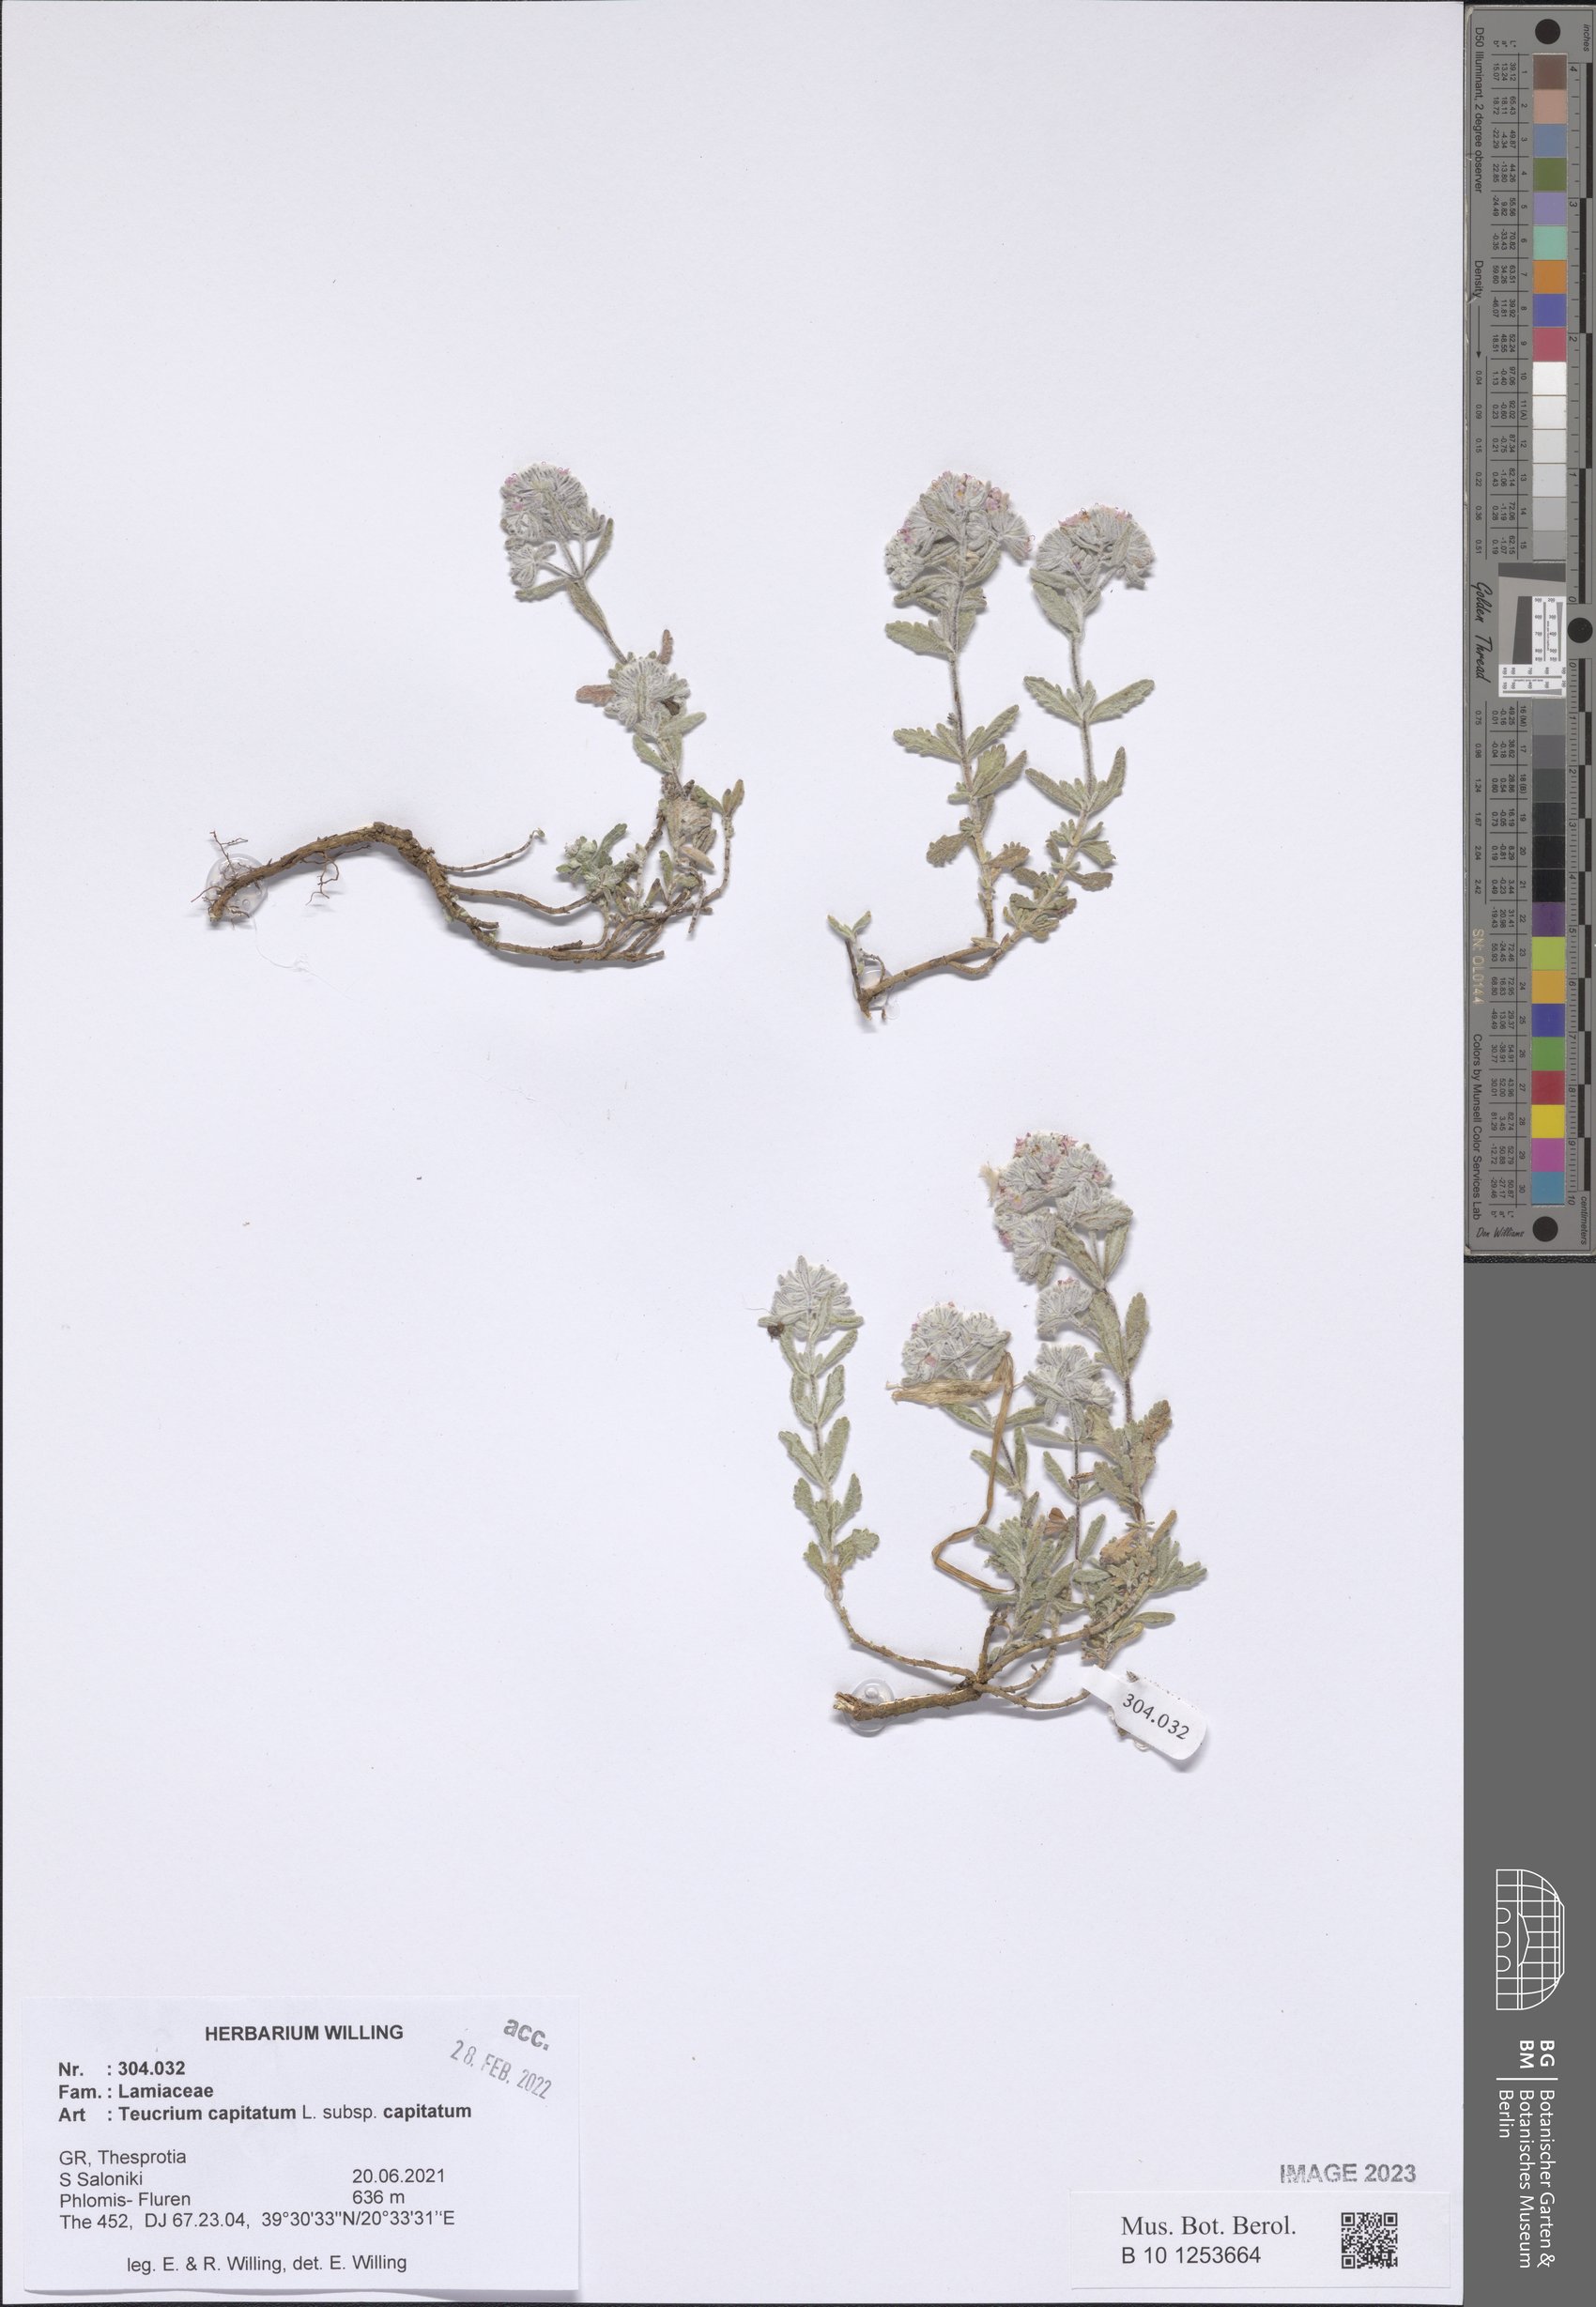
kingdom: Plantae
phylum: Tracheophyta
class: Magnoliopsida
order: Lamiales
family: Lamiaceae
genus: Teucrium
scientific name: Teucrium capitatum
